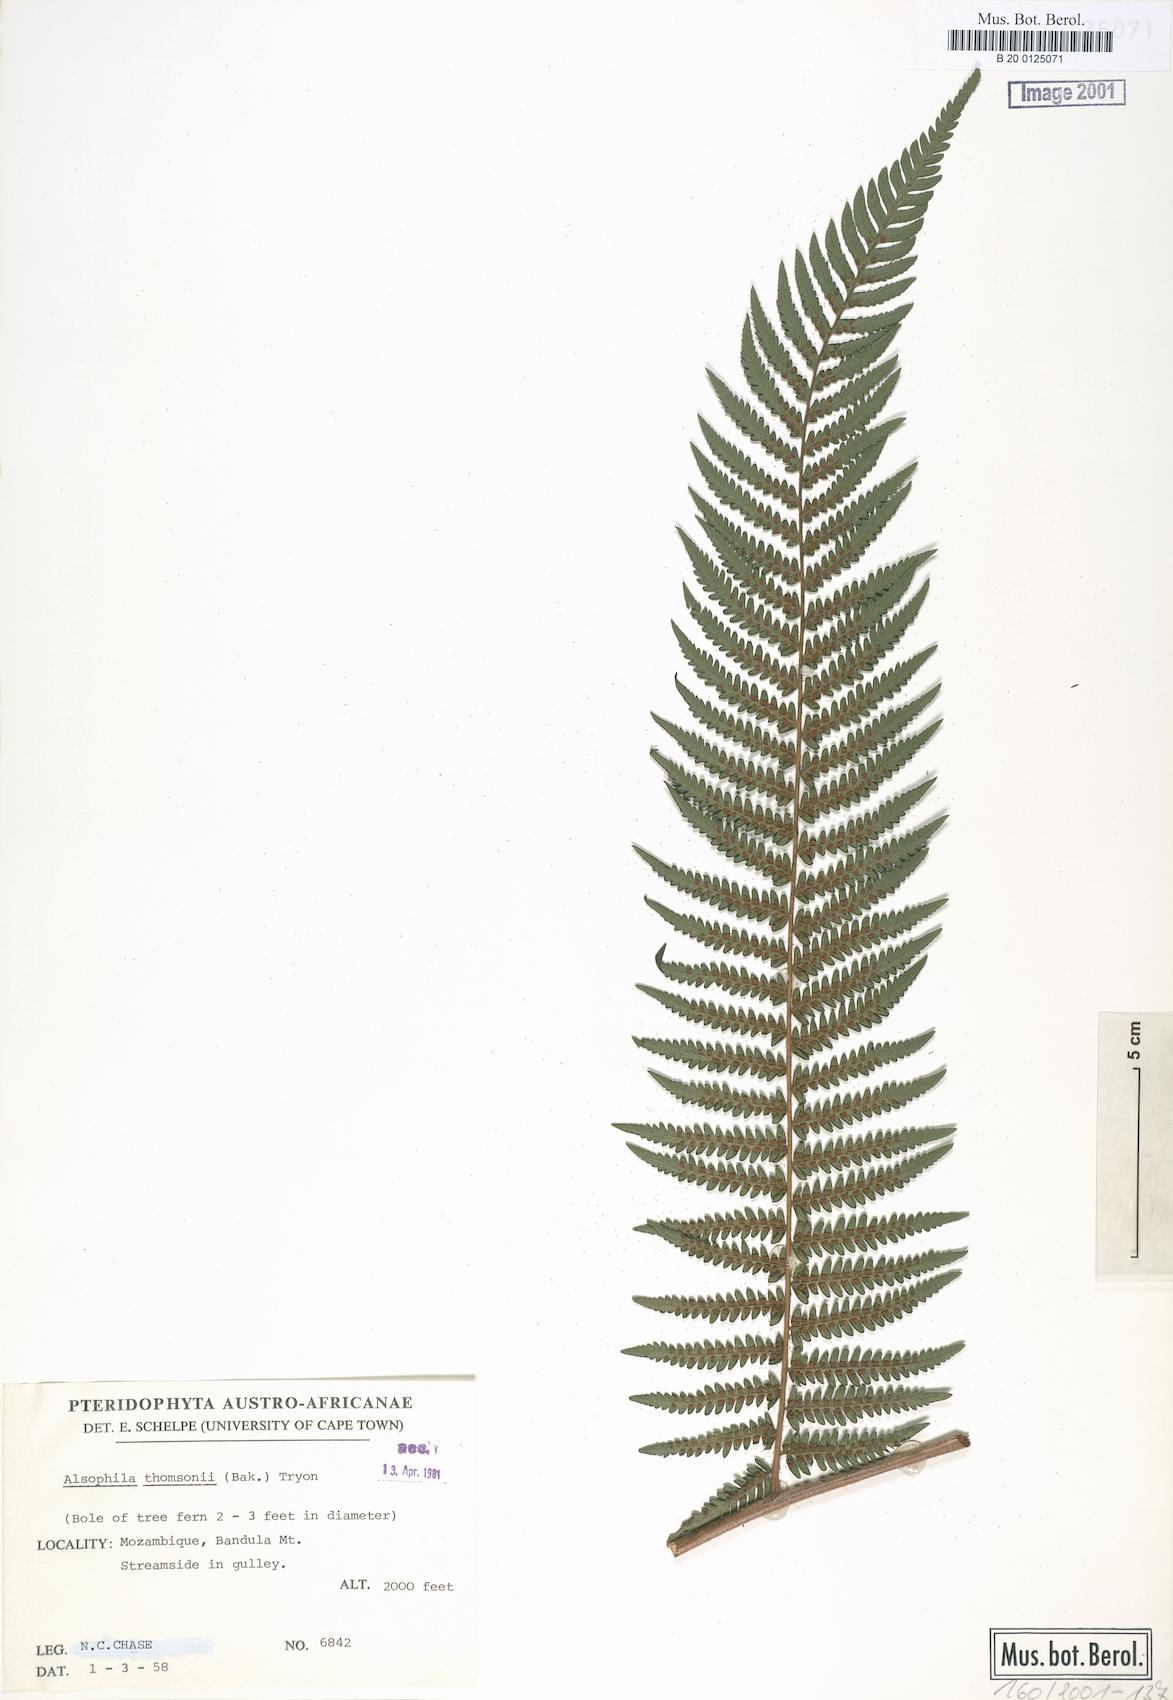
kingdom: Plantae
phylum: Tracheophyta
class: Polypodiopsida
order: Cyatheales
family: Cyatheaceae
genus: Alsophila
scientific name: Alsophila camerooniana
